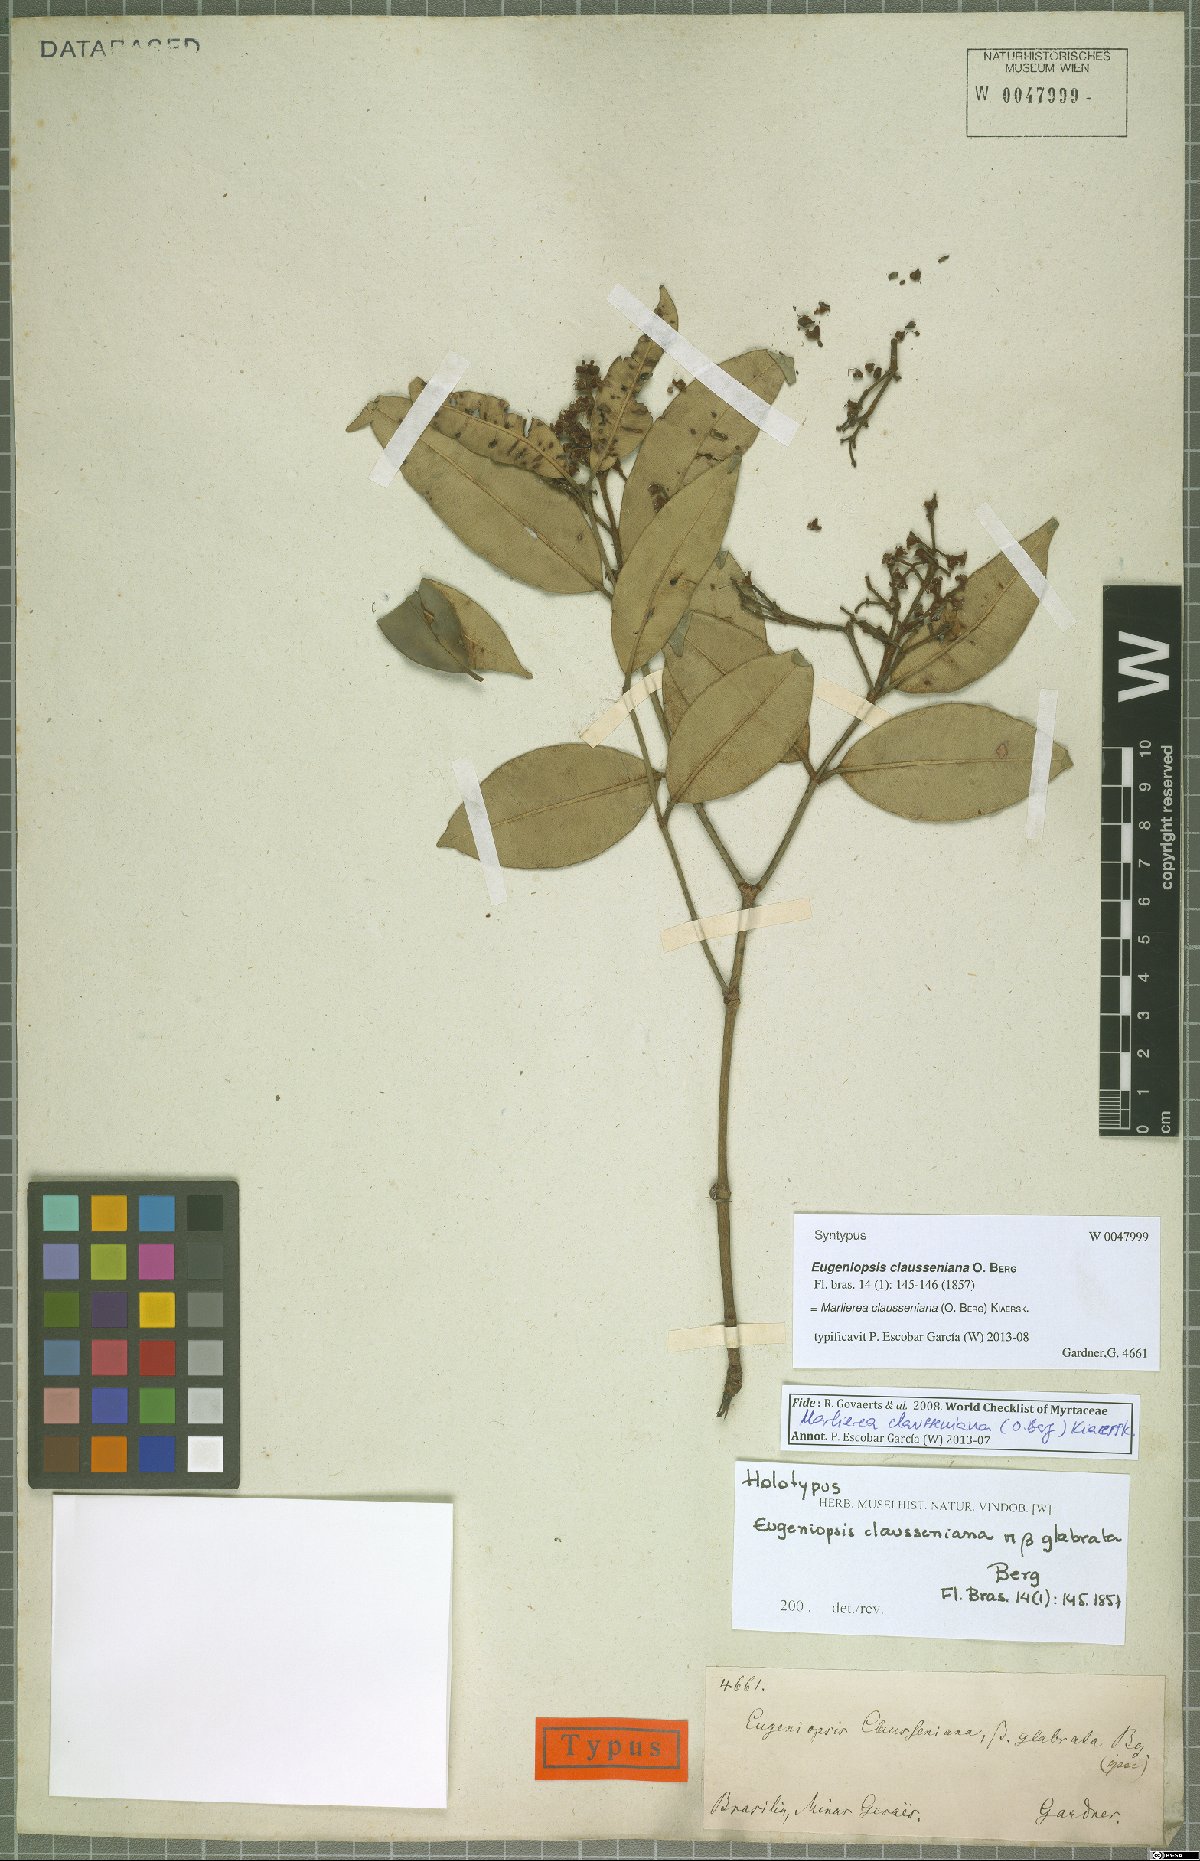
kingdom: Plantae
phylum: Tracheophyta
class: Magnoliopsida
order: Myrtales
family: Myrtaceae
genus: Marlierea
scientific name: Marlierea clausseniana
